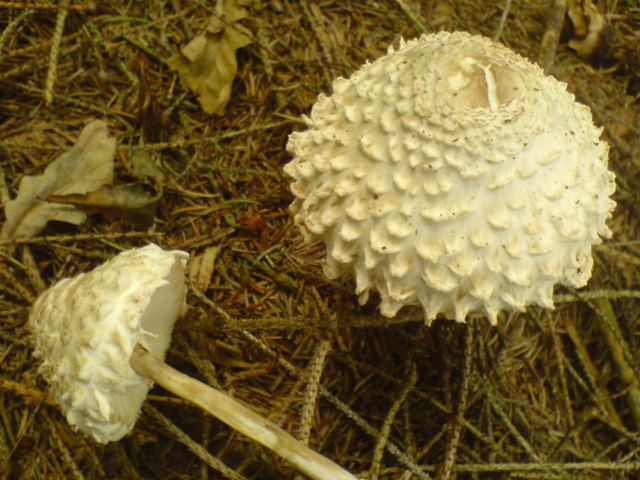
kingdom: Fungi
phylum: Basidiomycota
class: Agaricomycetes
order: Agaricales
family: Agaricaceae
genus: Leucoagaricus
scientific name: Leucoagaricus nympharum
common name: gran-silkehat
